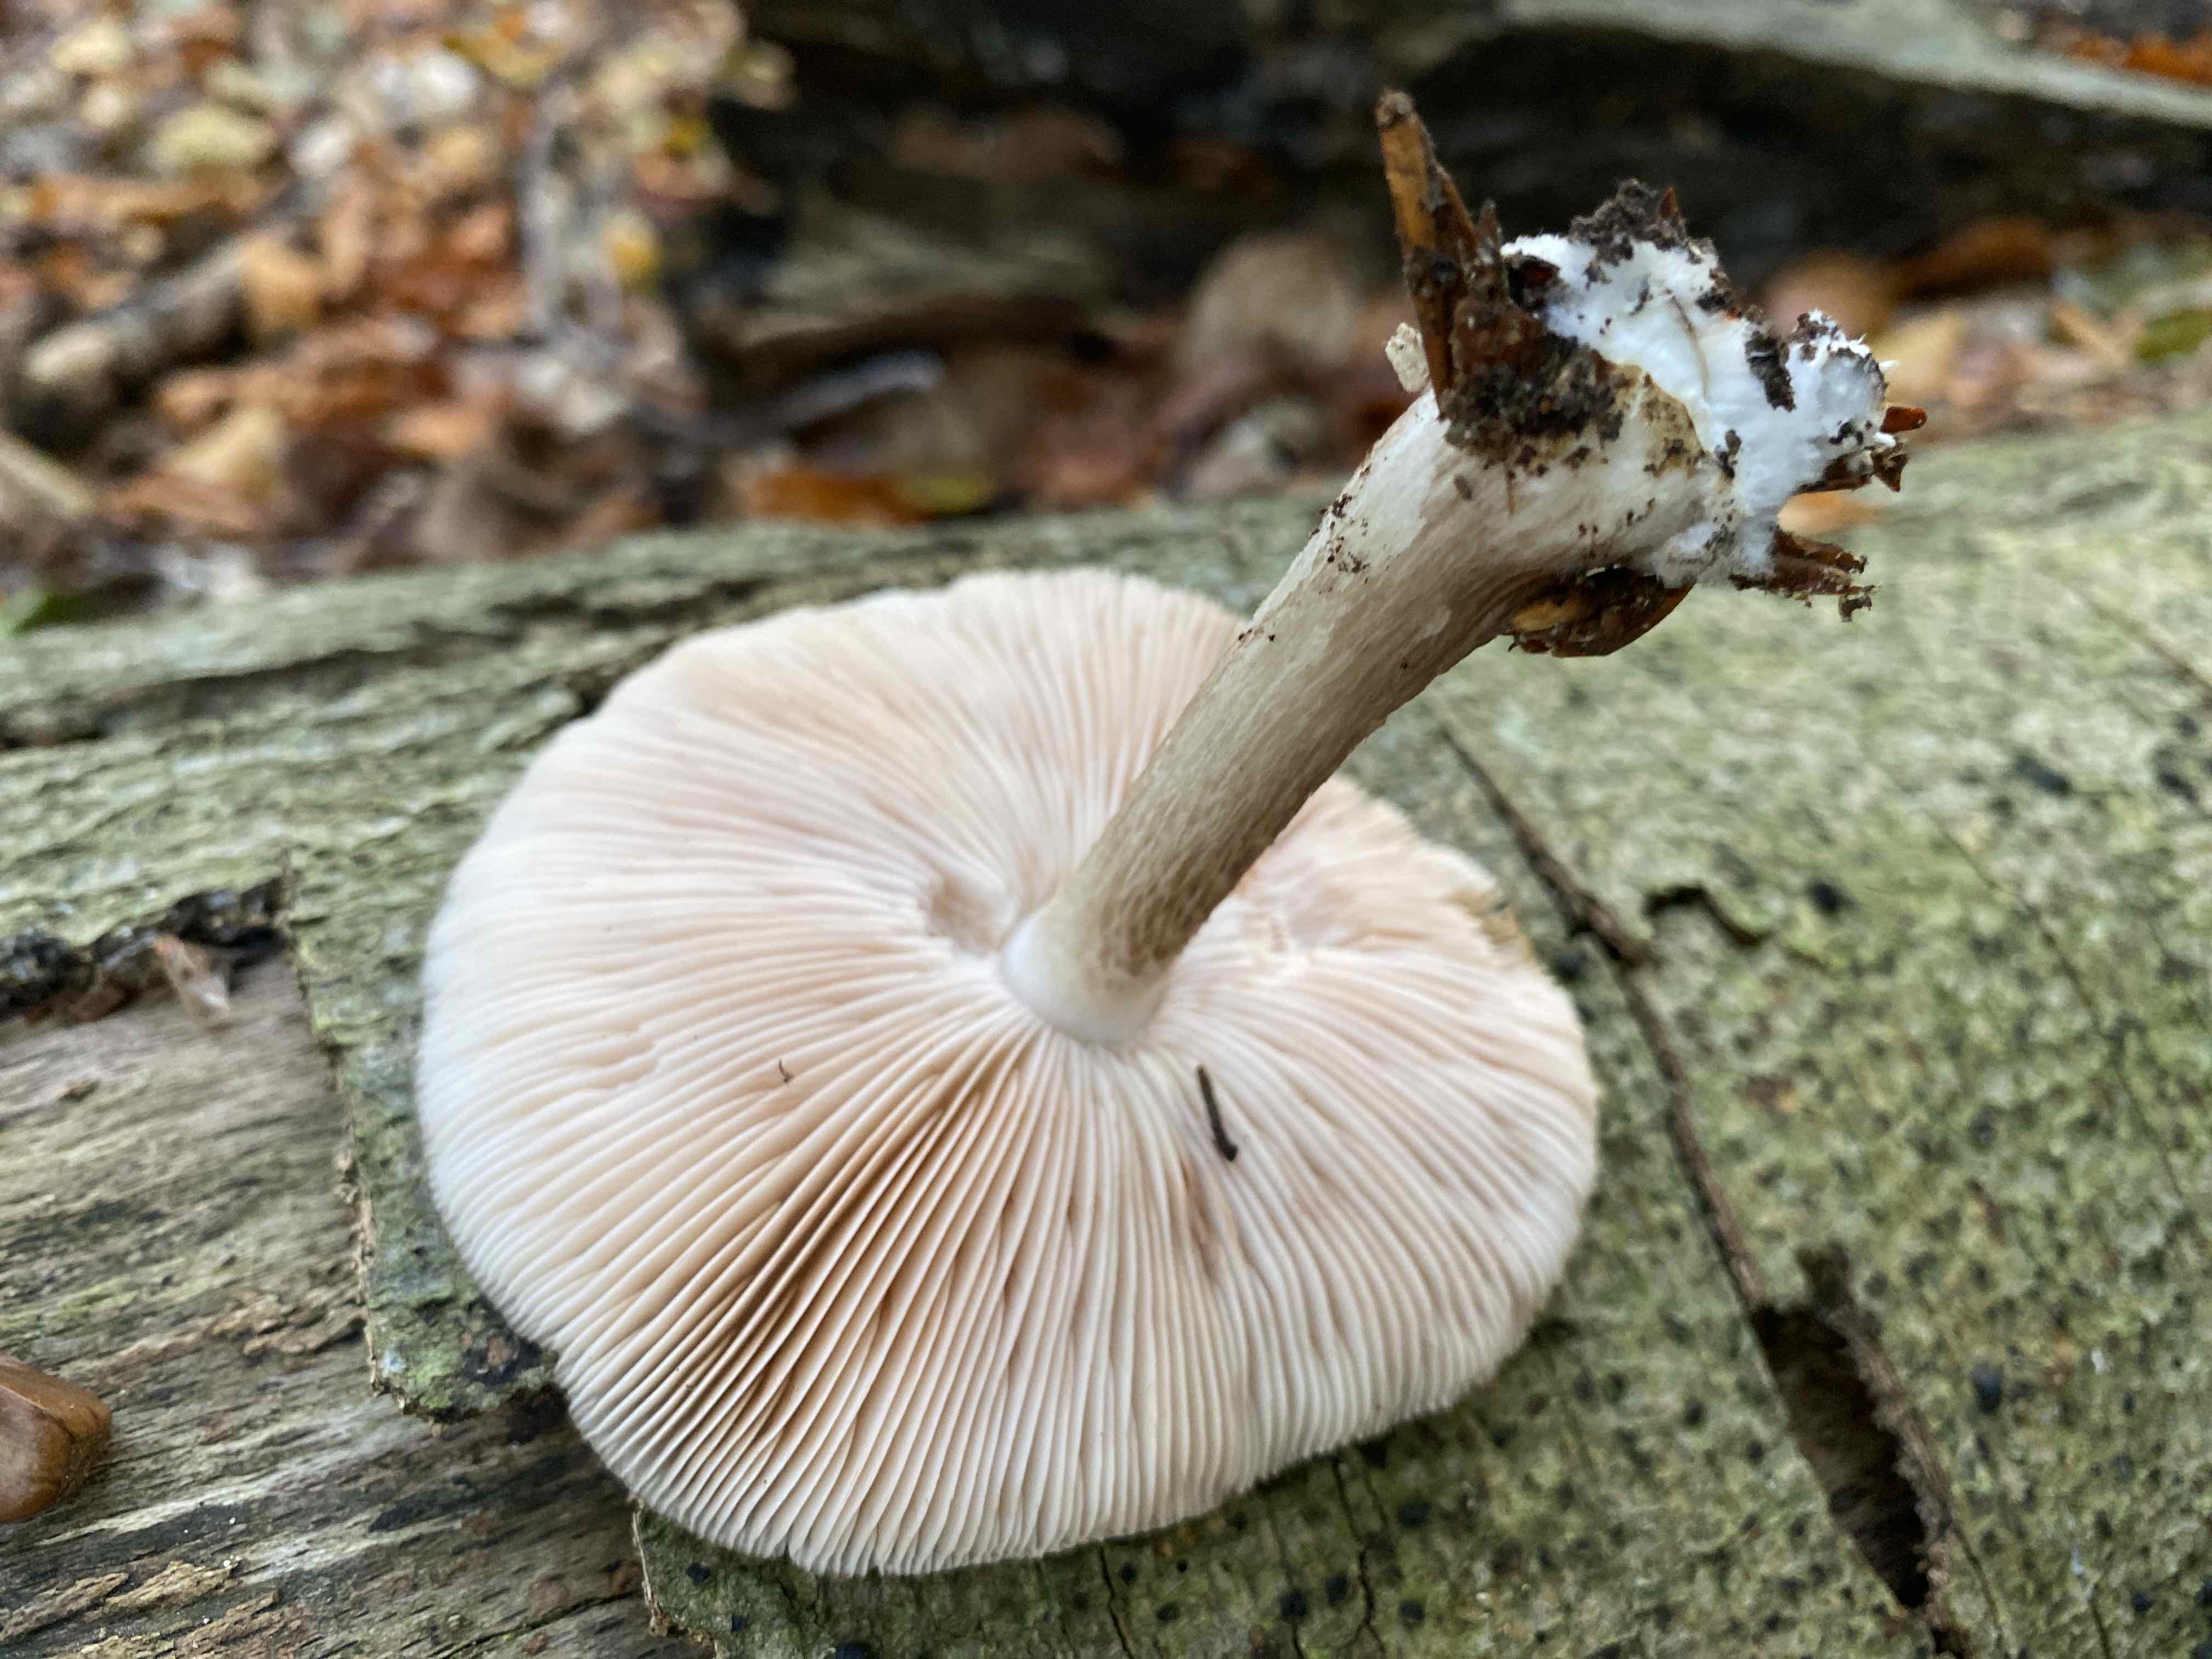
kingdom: Fungi
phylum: Basidiomycota
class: Agaricomycetes
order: Agaricales
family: Pluteaceae
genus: Pluteus
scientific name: Pluteus cervinus
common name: sodfarvet skærmhat
